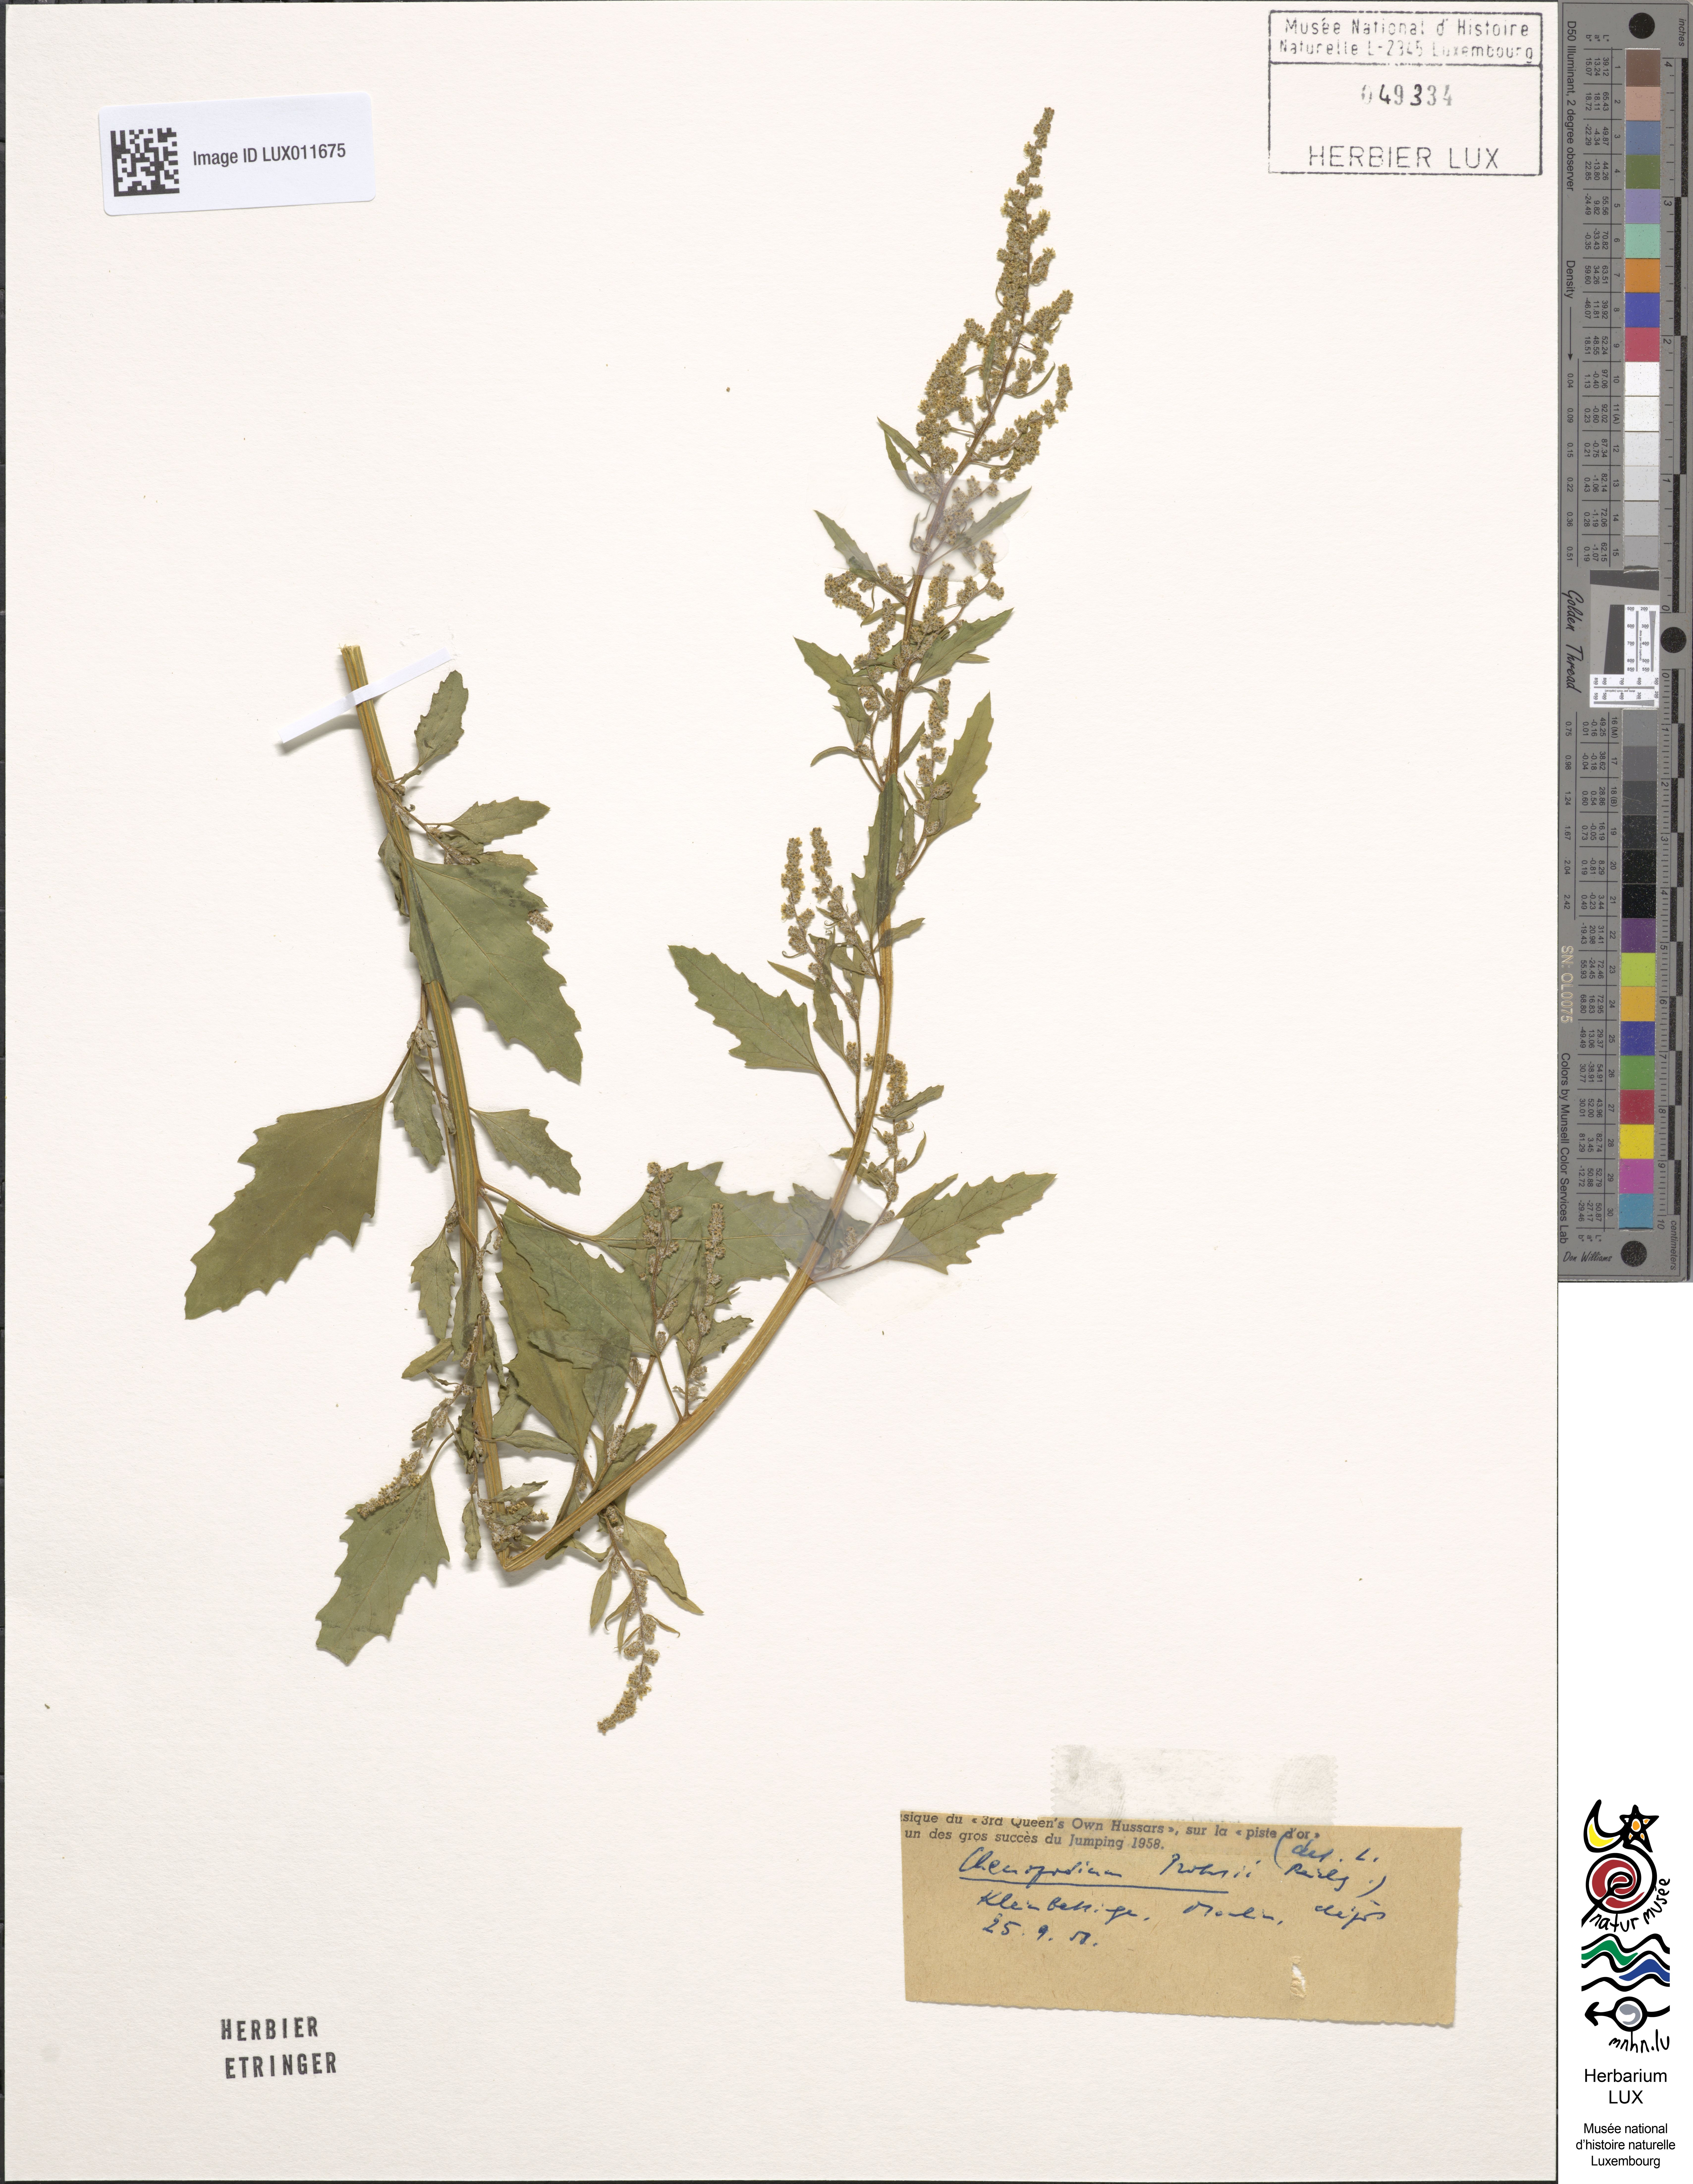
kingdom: Plantae
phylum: Tracheophyta
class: Magnoliopsida
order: Caryophyllales
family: Amaranthaceae
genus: Chenopodium
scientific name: Chenopodium probstii
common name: Probst's goosefoot
